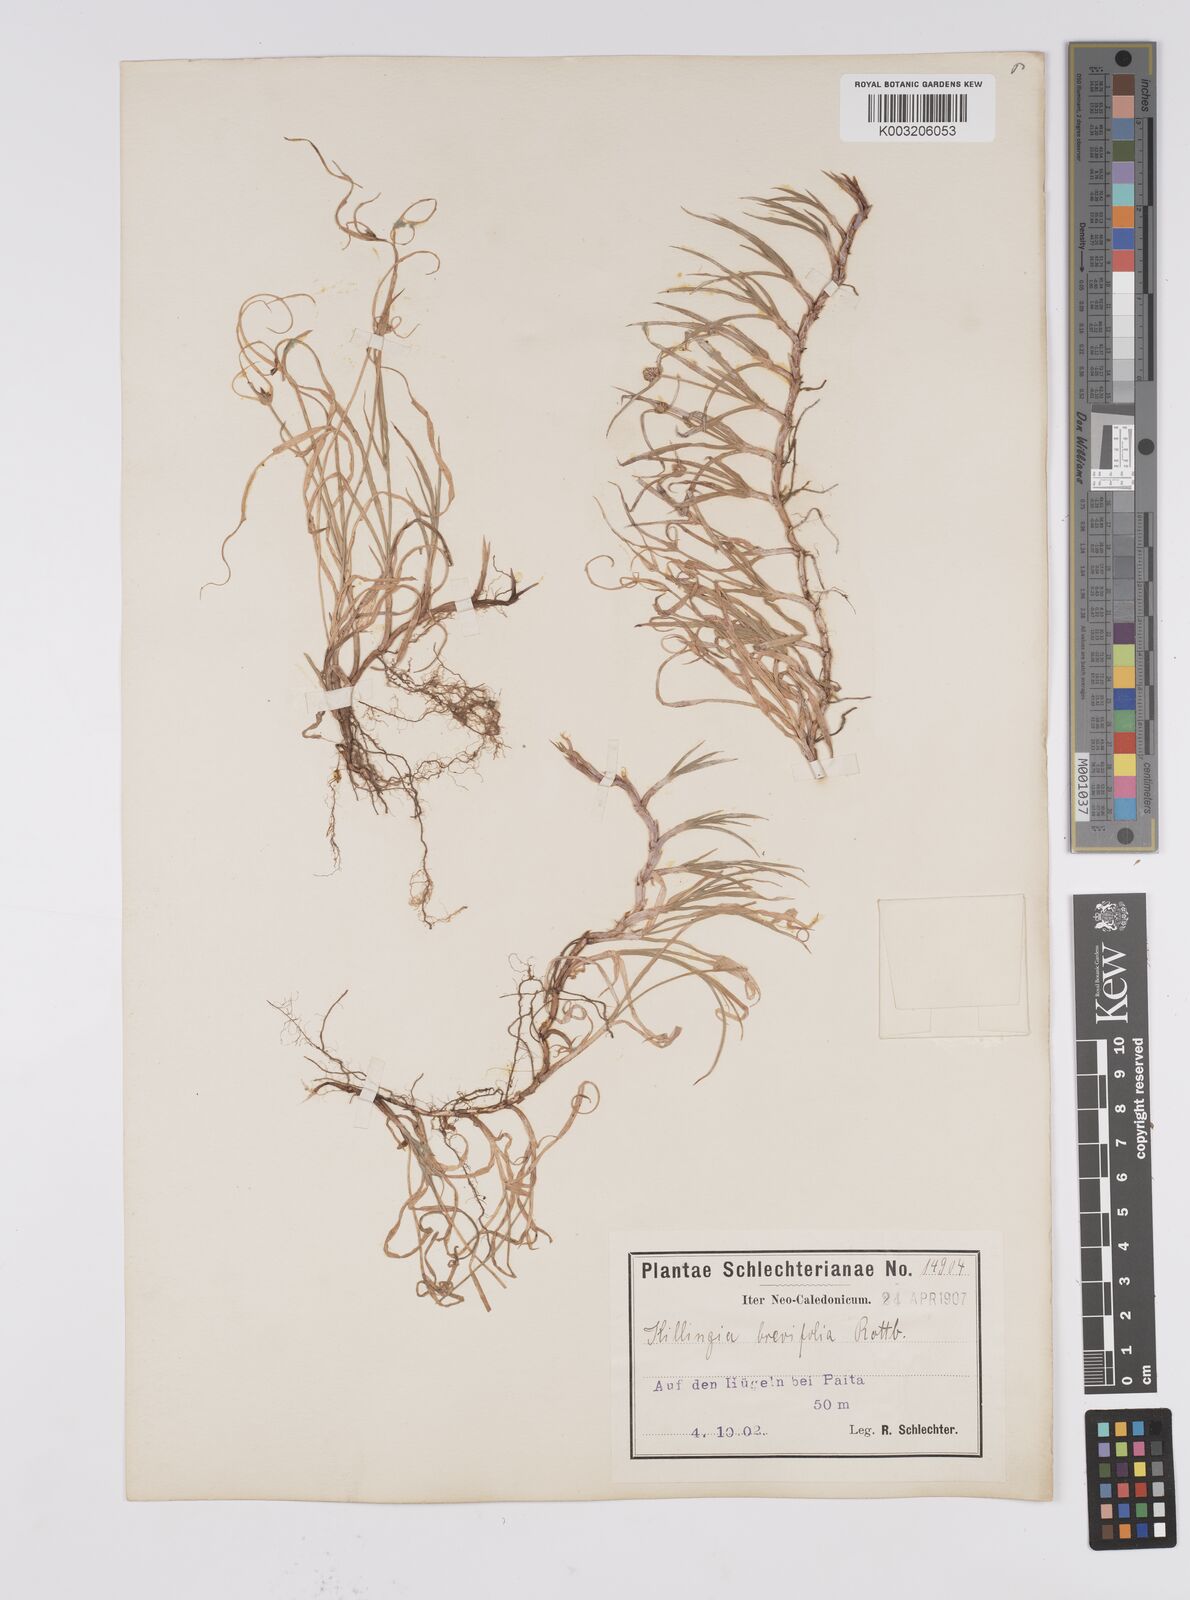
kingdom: Plantae
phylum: Tracheophyta
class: Liliopsida
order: Poales
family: Cyperaceae
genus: Cyperus
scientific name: Cyperus brevifolius
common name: Globe kyllinga
